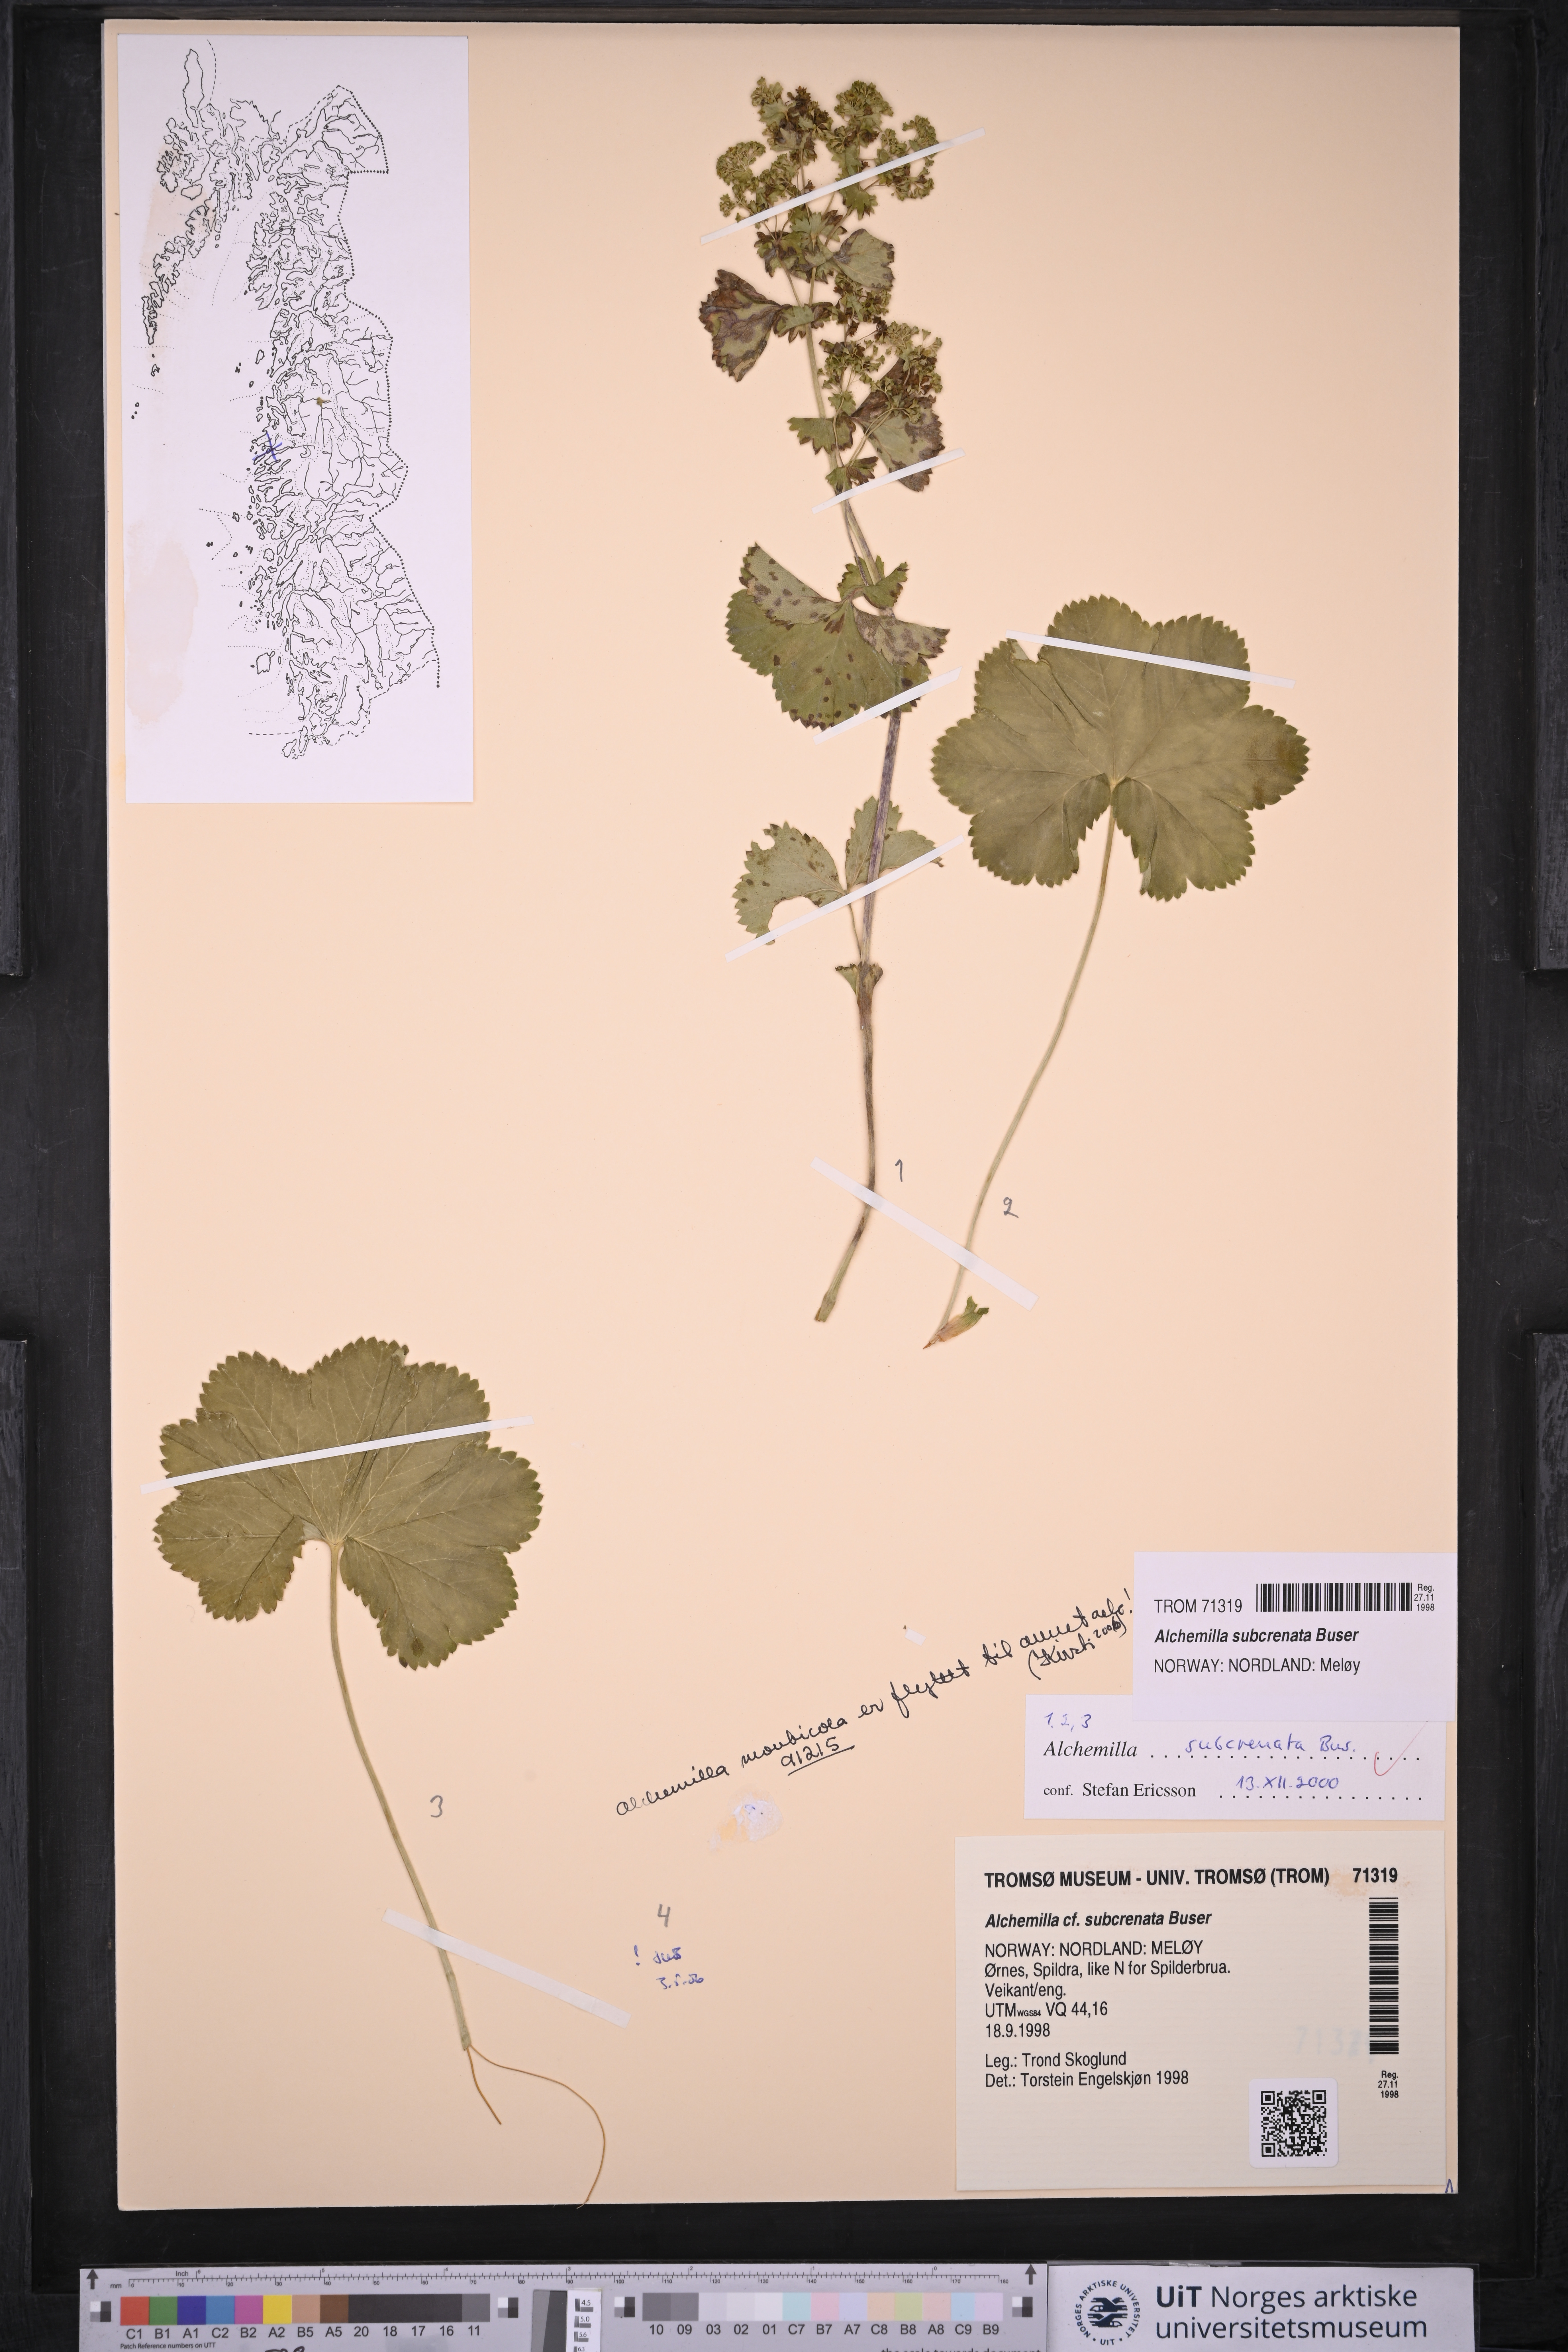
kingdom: Plantae
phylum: Tracheophyta
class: Magnoliopsida
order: Rosales
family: Rosaceae
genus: Alchemilla
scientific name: Alchemilla subcrenata
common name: Broadtooth lady's mantle
